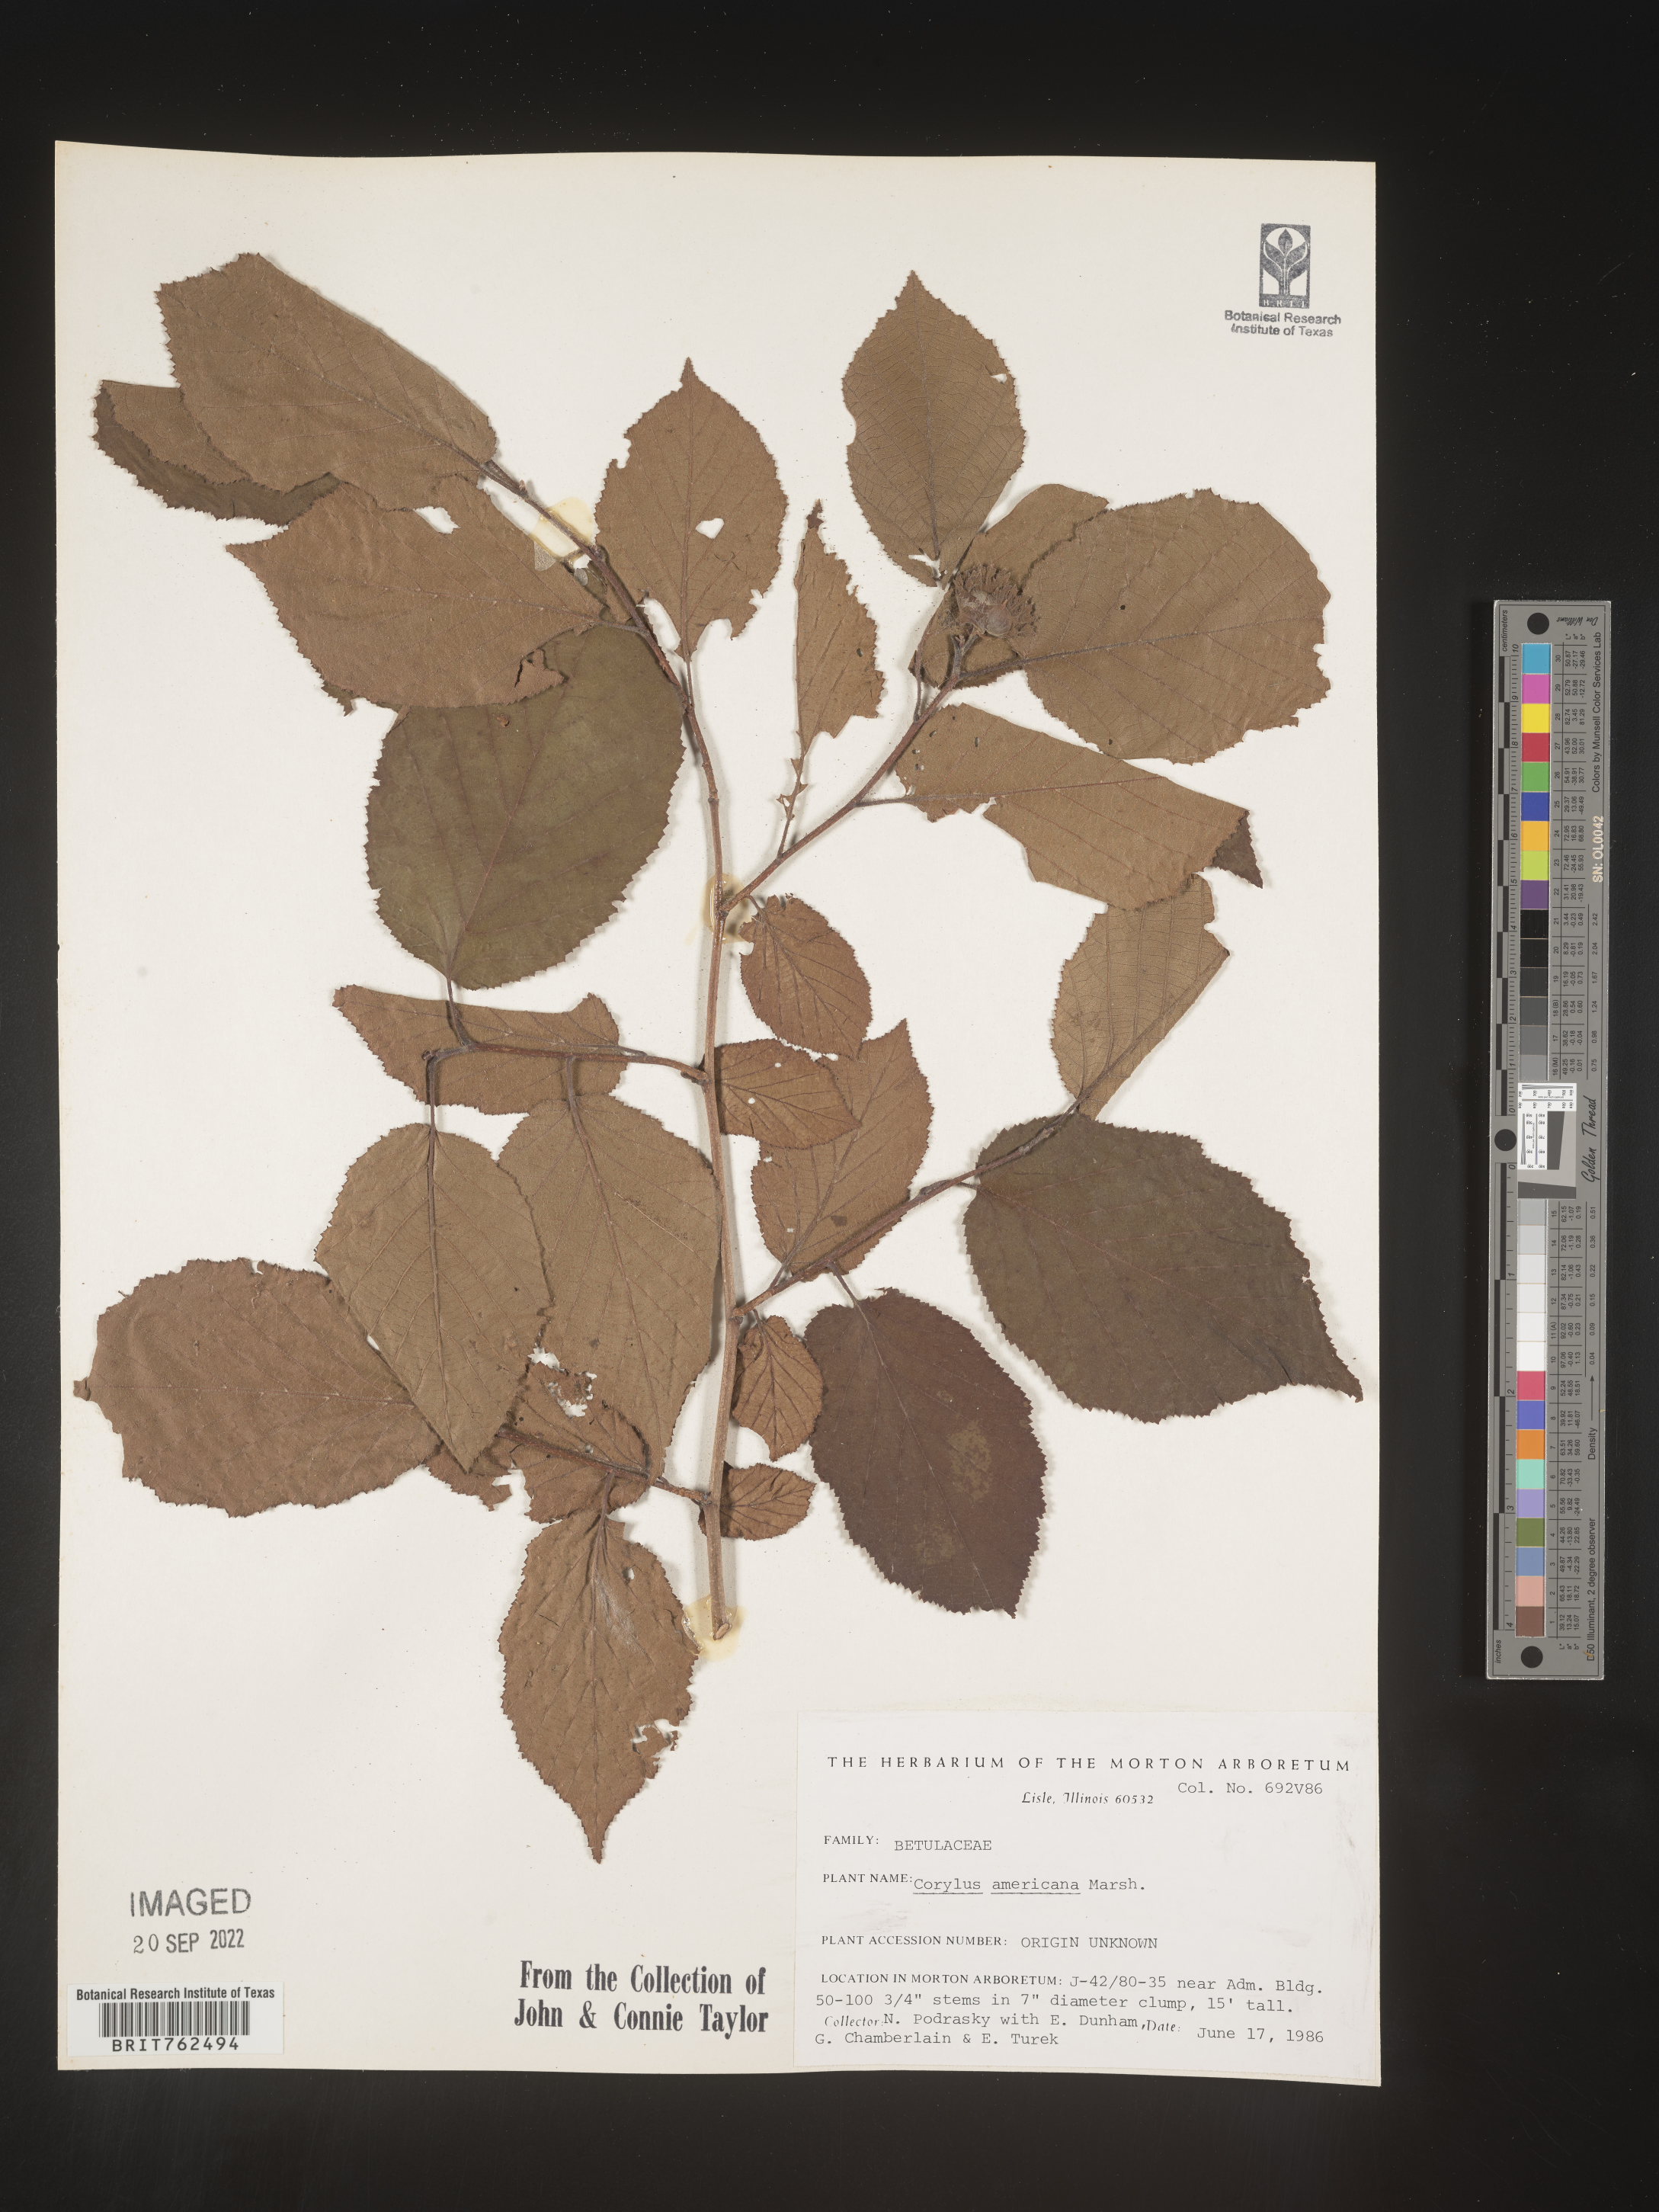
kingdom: Plantae
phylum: Tracheophyta
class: Magnoliopsida
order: Fagales
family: Betulaceae
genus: Corylus
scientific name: Corylus americana
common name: American hazel
